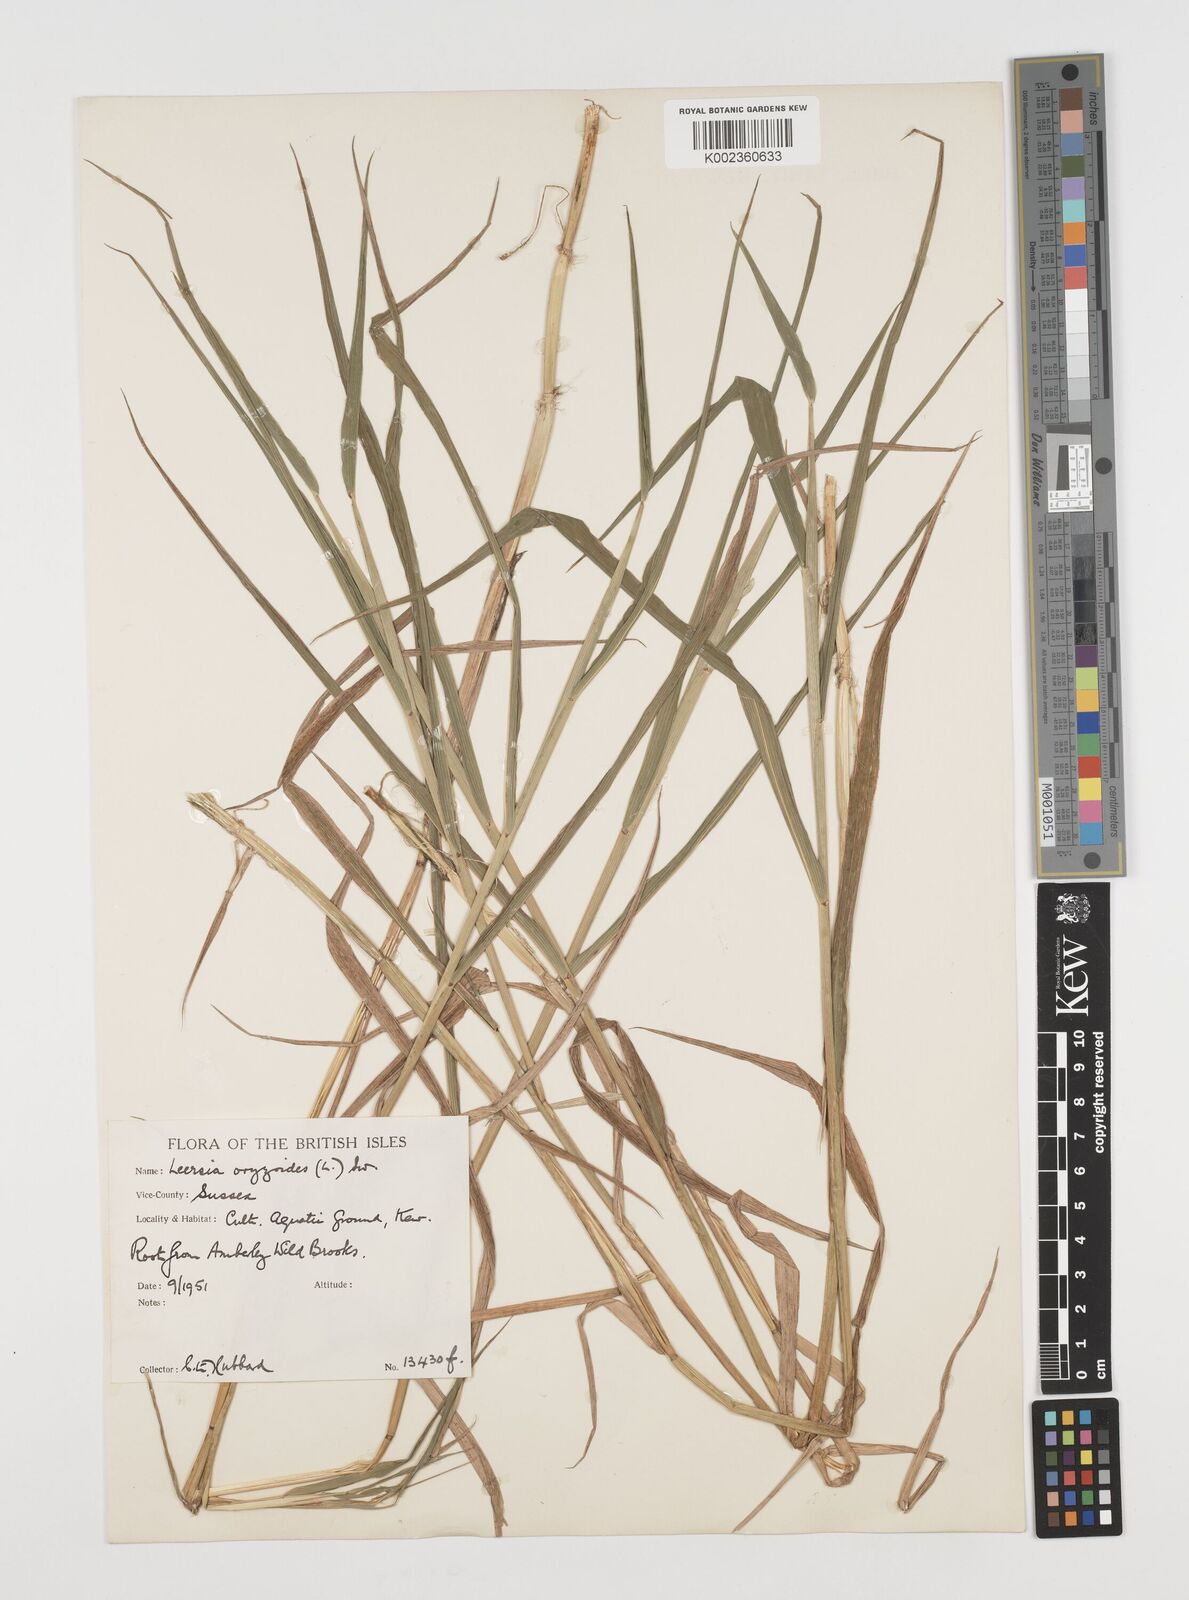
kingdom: Plantae
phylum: Tracheophyta
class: Liliopsida
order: Poales
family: Poaceae
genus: Leersia
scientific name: Leersia oryzoides
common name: Cut-grass
